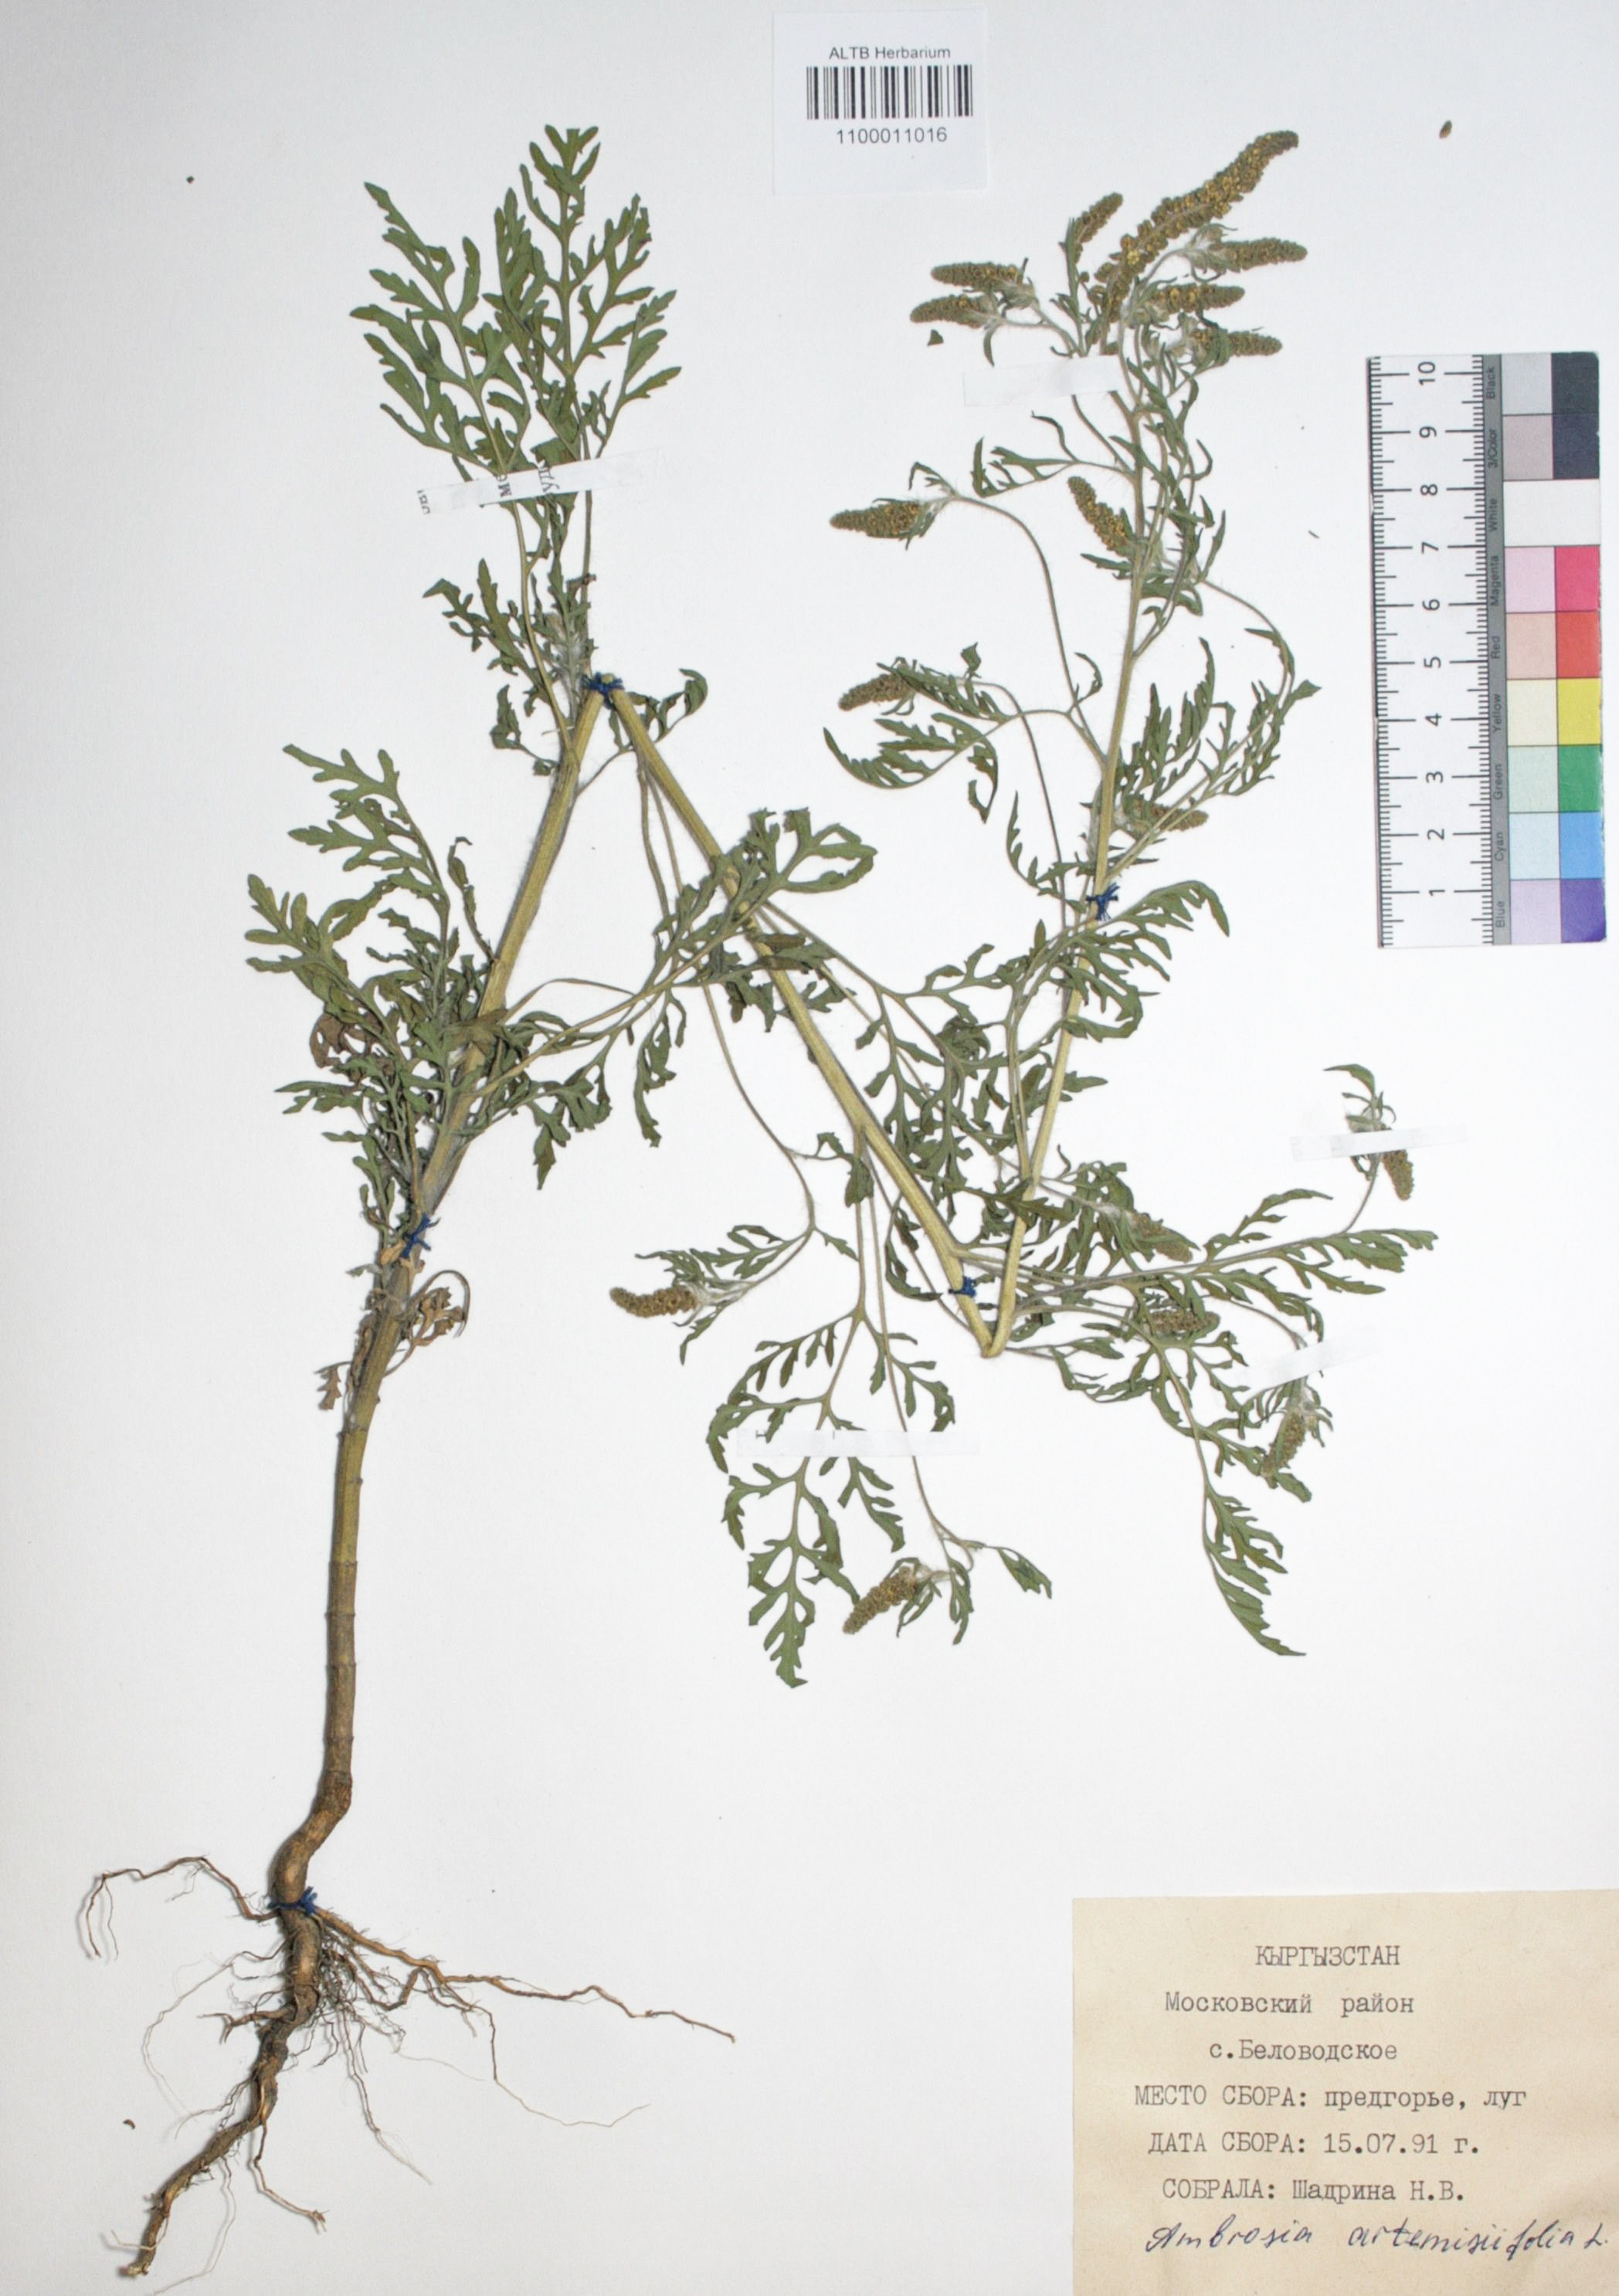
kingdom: Plantae
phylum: Tracheophyta
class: Magnoliopsida
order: Asterales
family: Asteraceae
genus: Ambrosia
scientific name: Ambrosia artemisiifolia
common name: Annual ragweed
